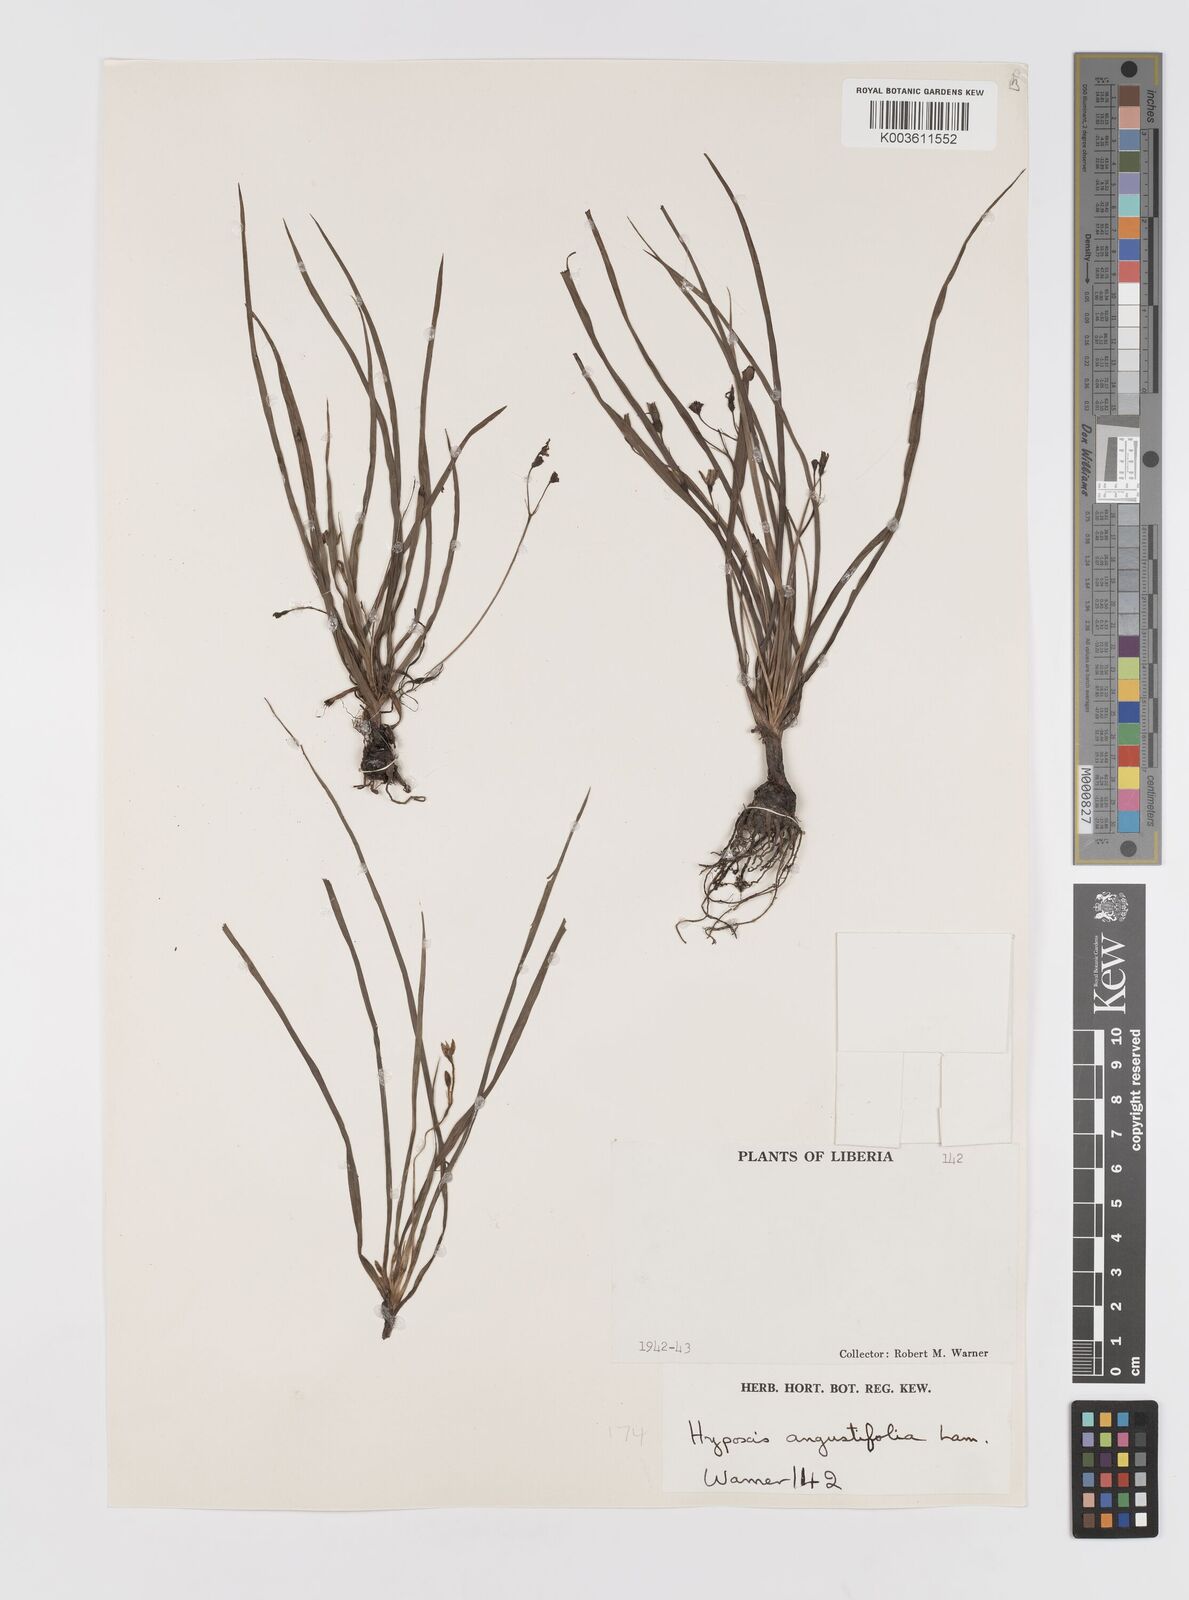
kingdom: Plantae
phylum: Tracheophyta
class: Liliopsida
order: Asparagales
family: Hypoxidaceae
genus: Hypoxis
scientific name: Hypoxis angustifolia
